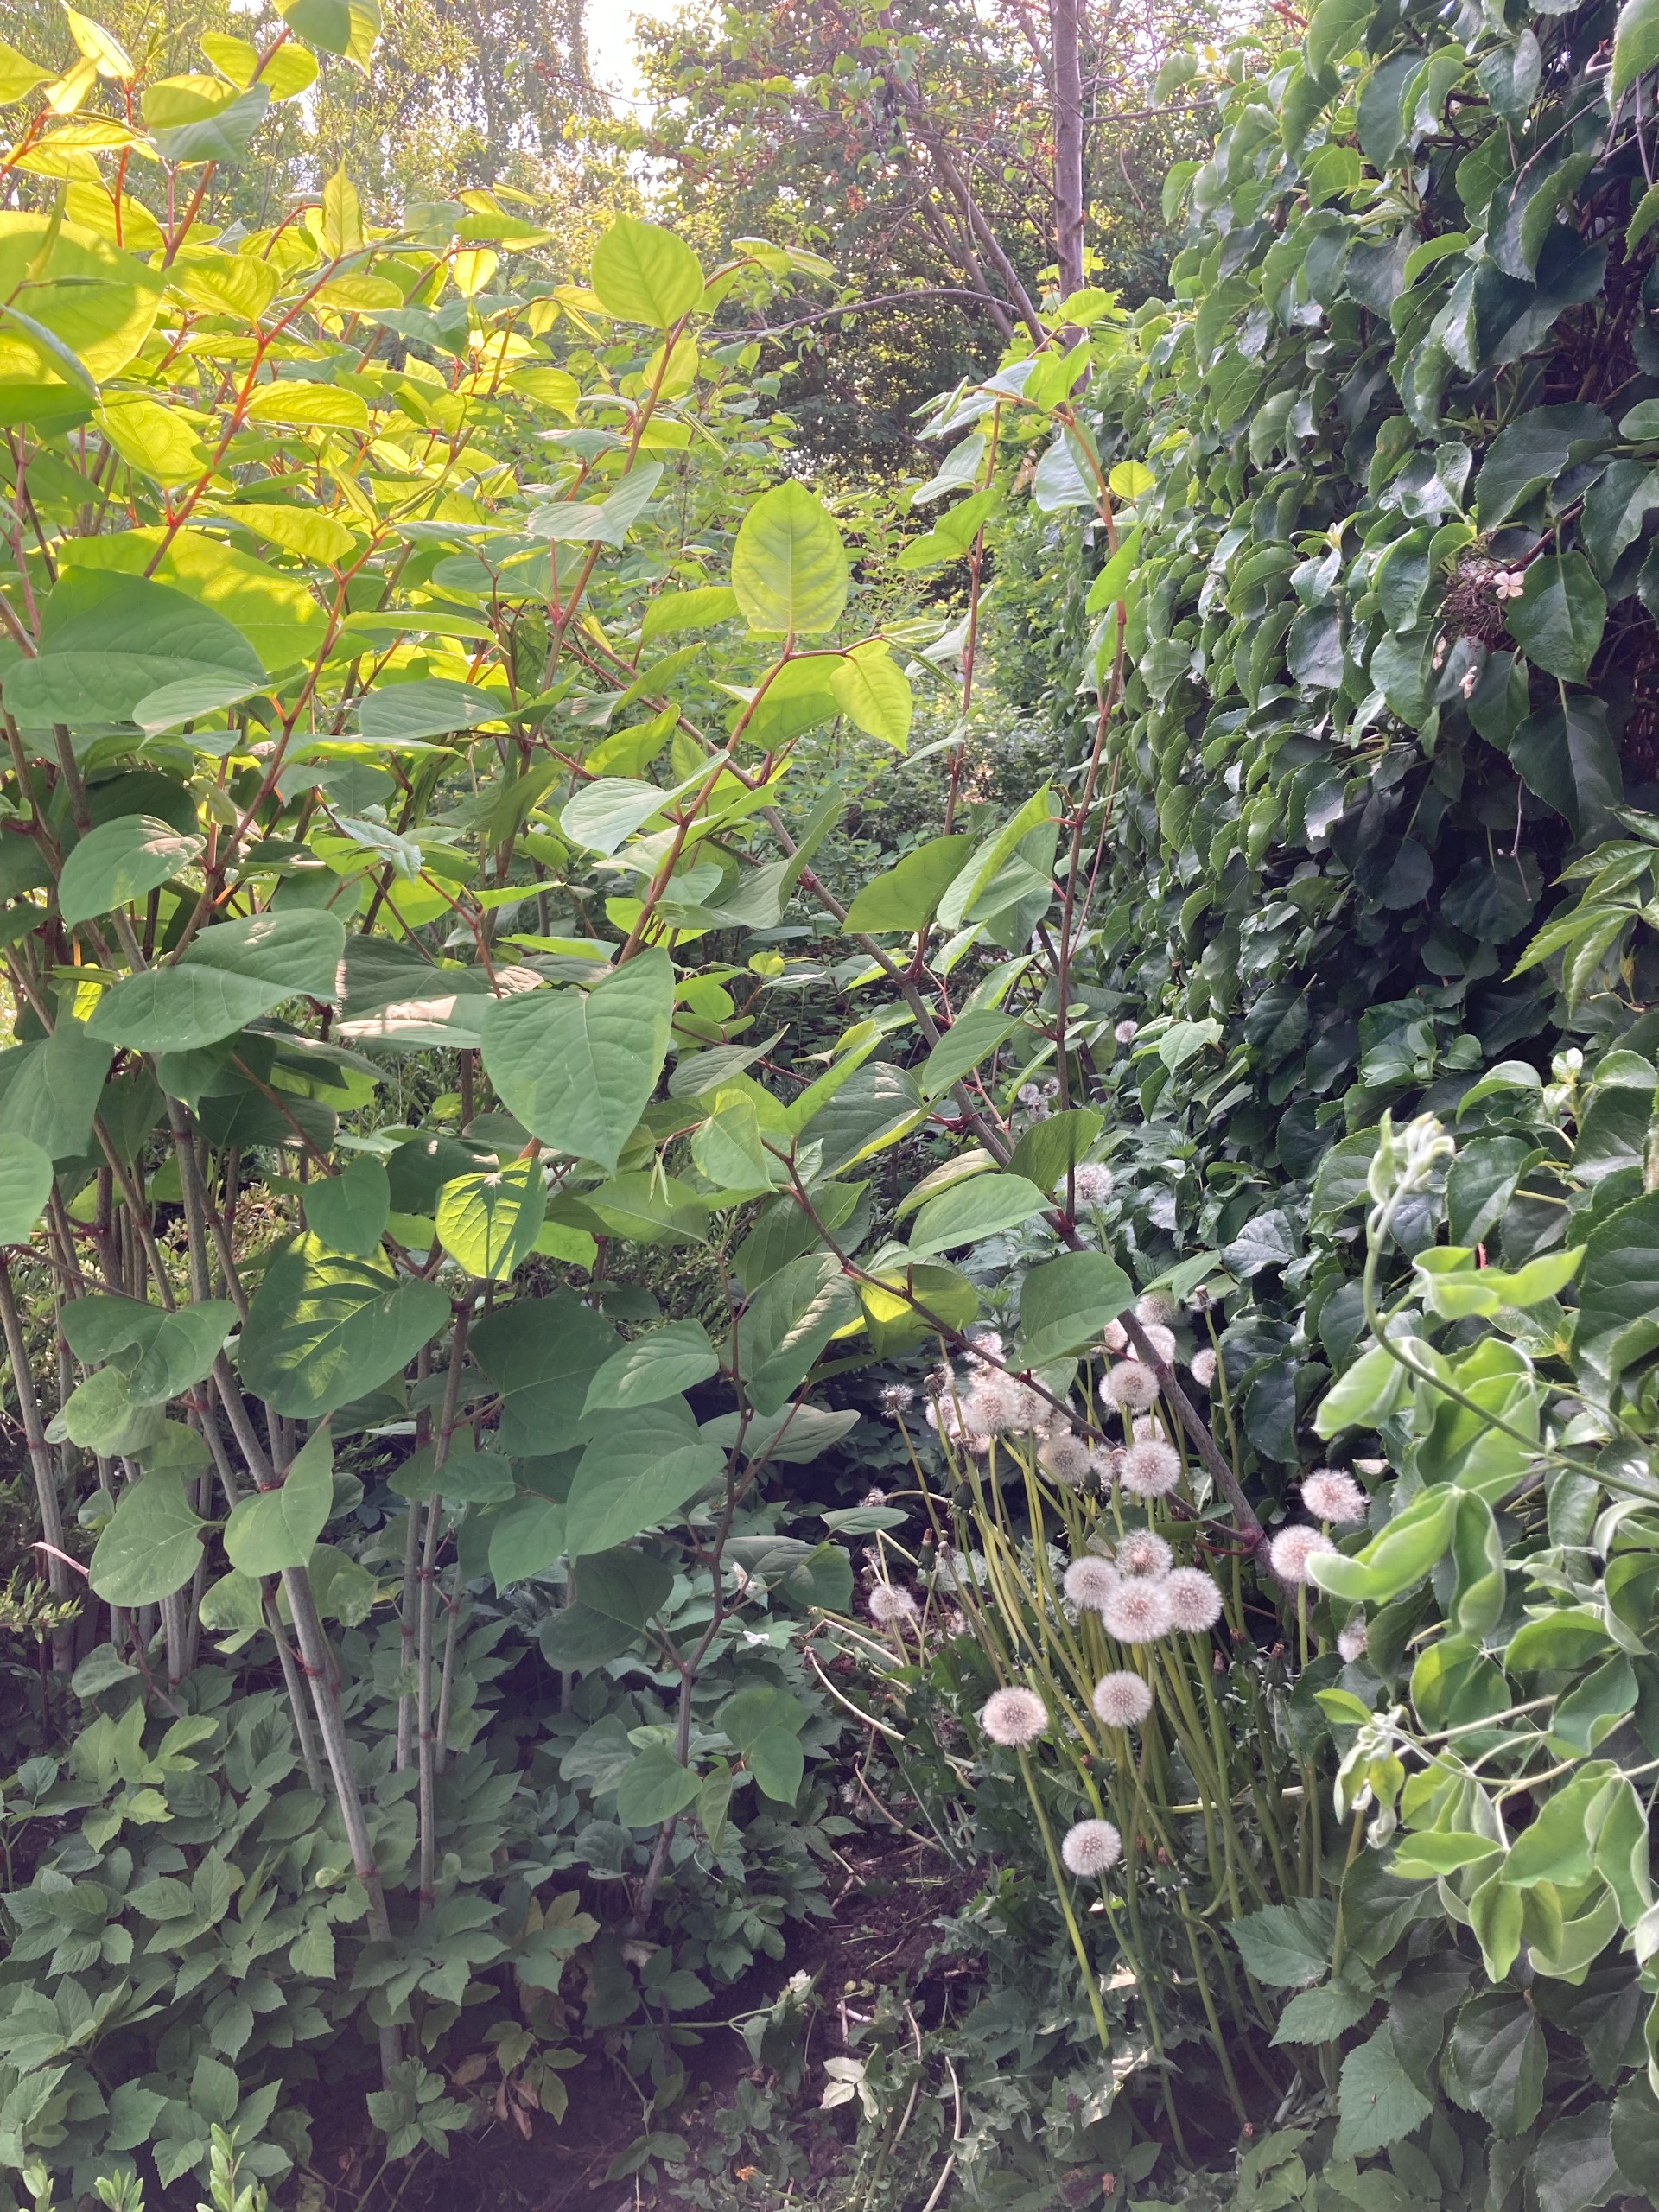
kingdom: Plantae
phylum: Tracheophyta
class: Magnoliopsida
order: Caryophyllales
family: Polygonaceae
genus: Reynoutria
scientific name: Reynoutria japonica
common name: Japan-pileurt
